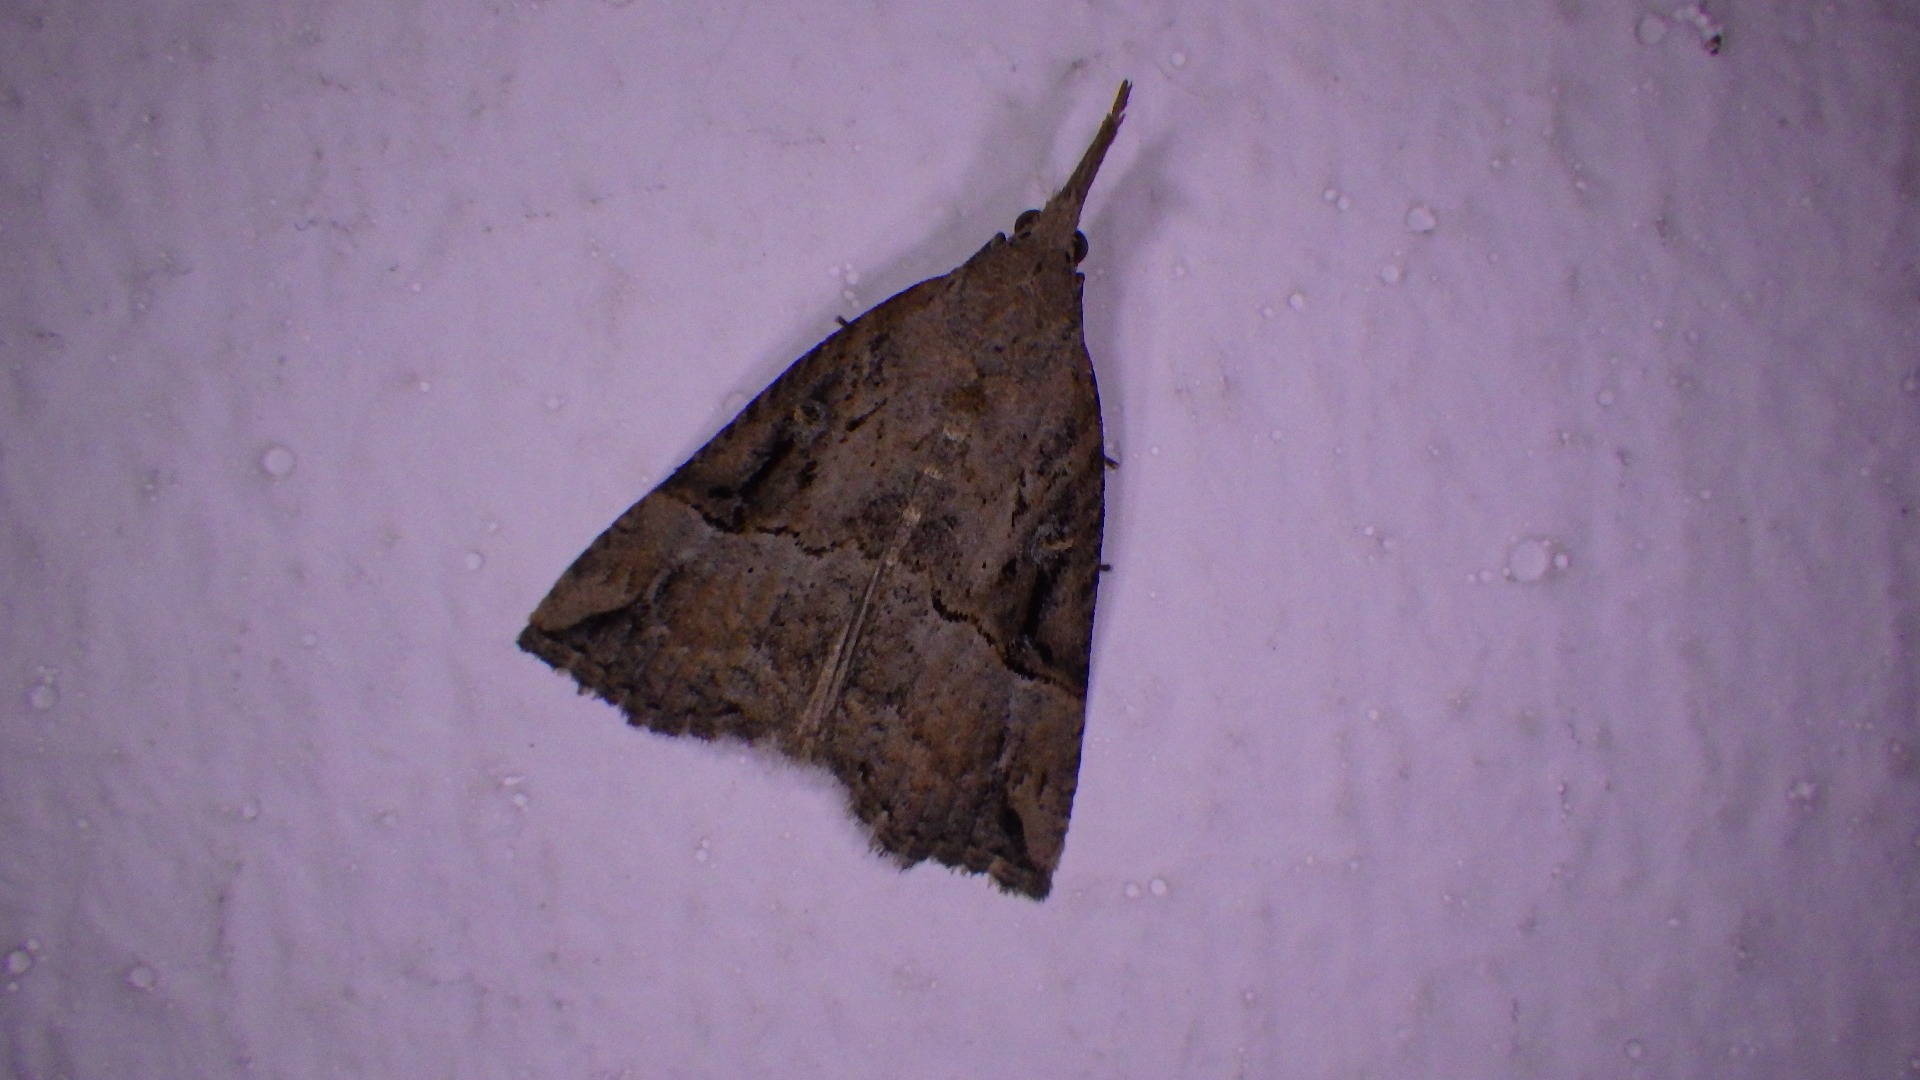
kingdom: Animalia
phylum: Arthropoda
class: Insecta
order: Lepidoptera
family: Erebidae
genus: Hypena
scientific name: Hypena rostralis
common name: Humleugle
